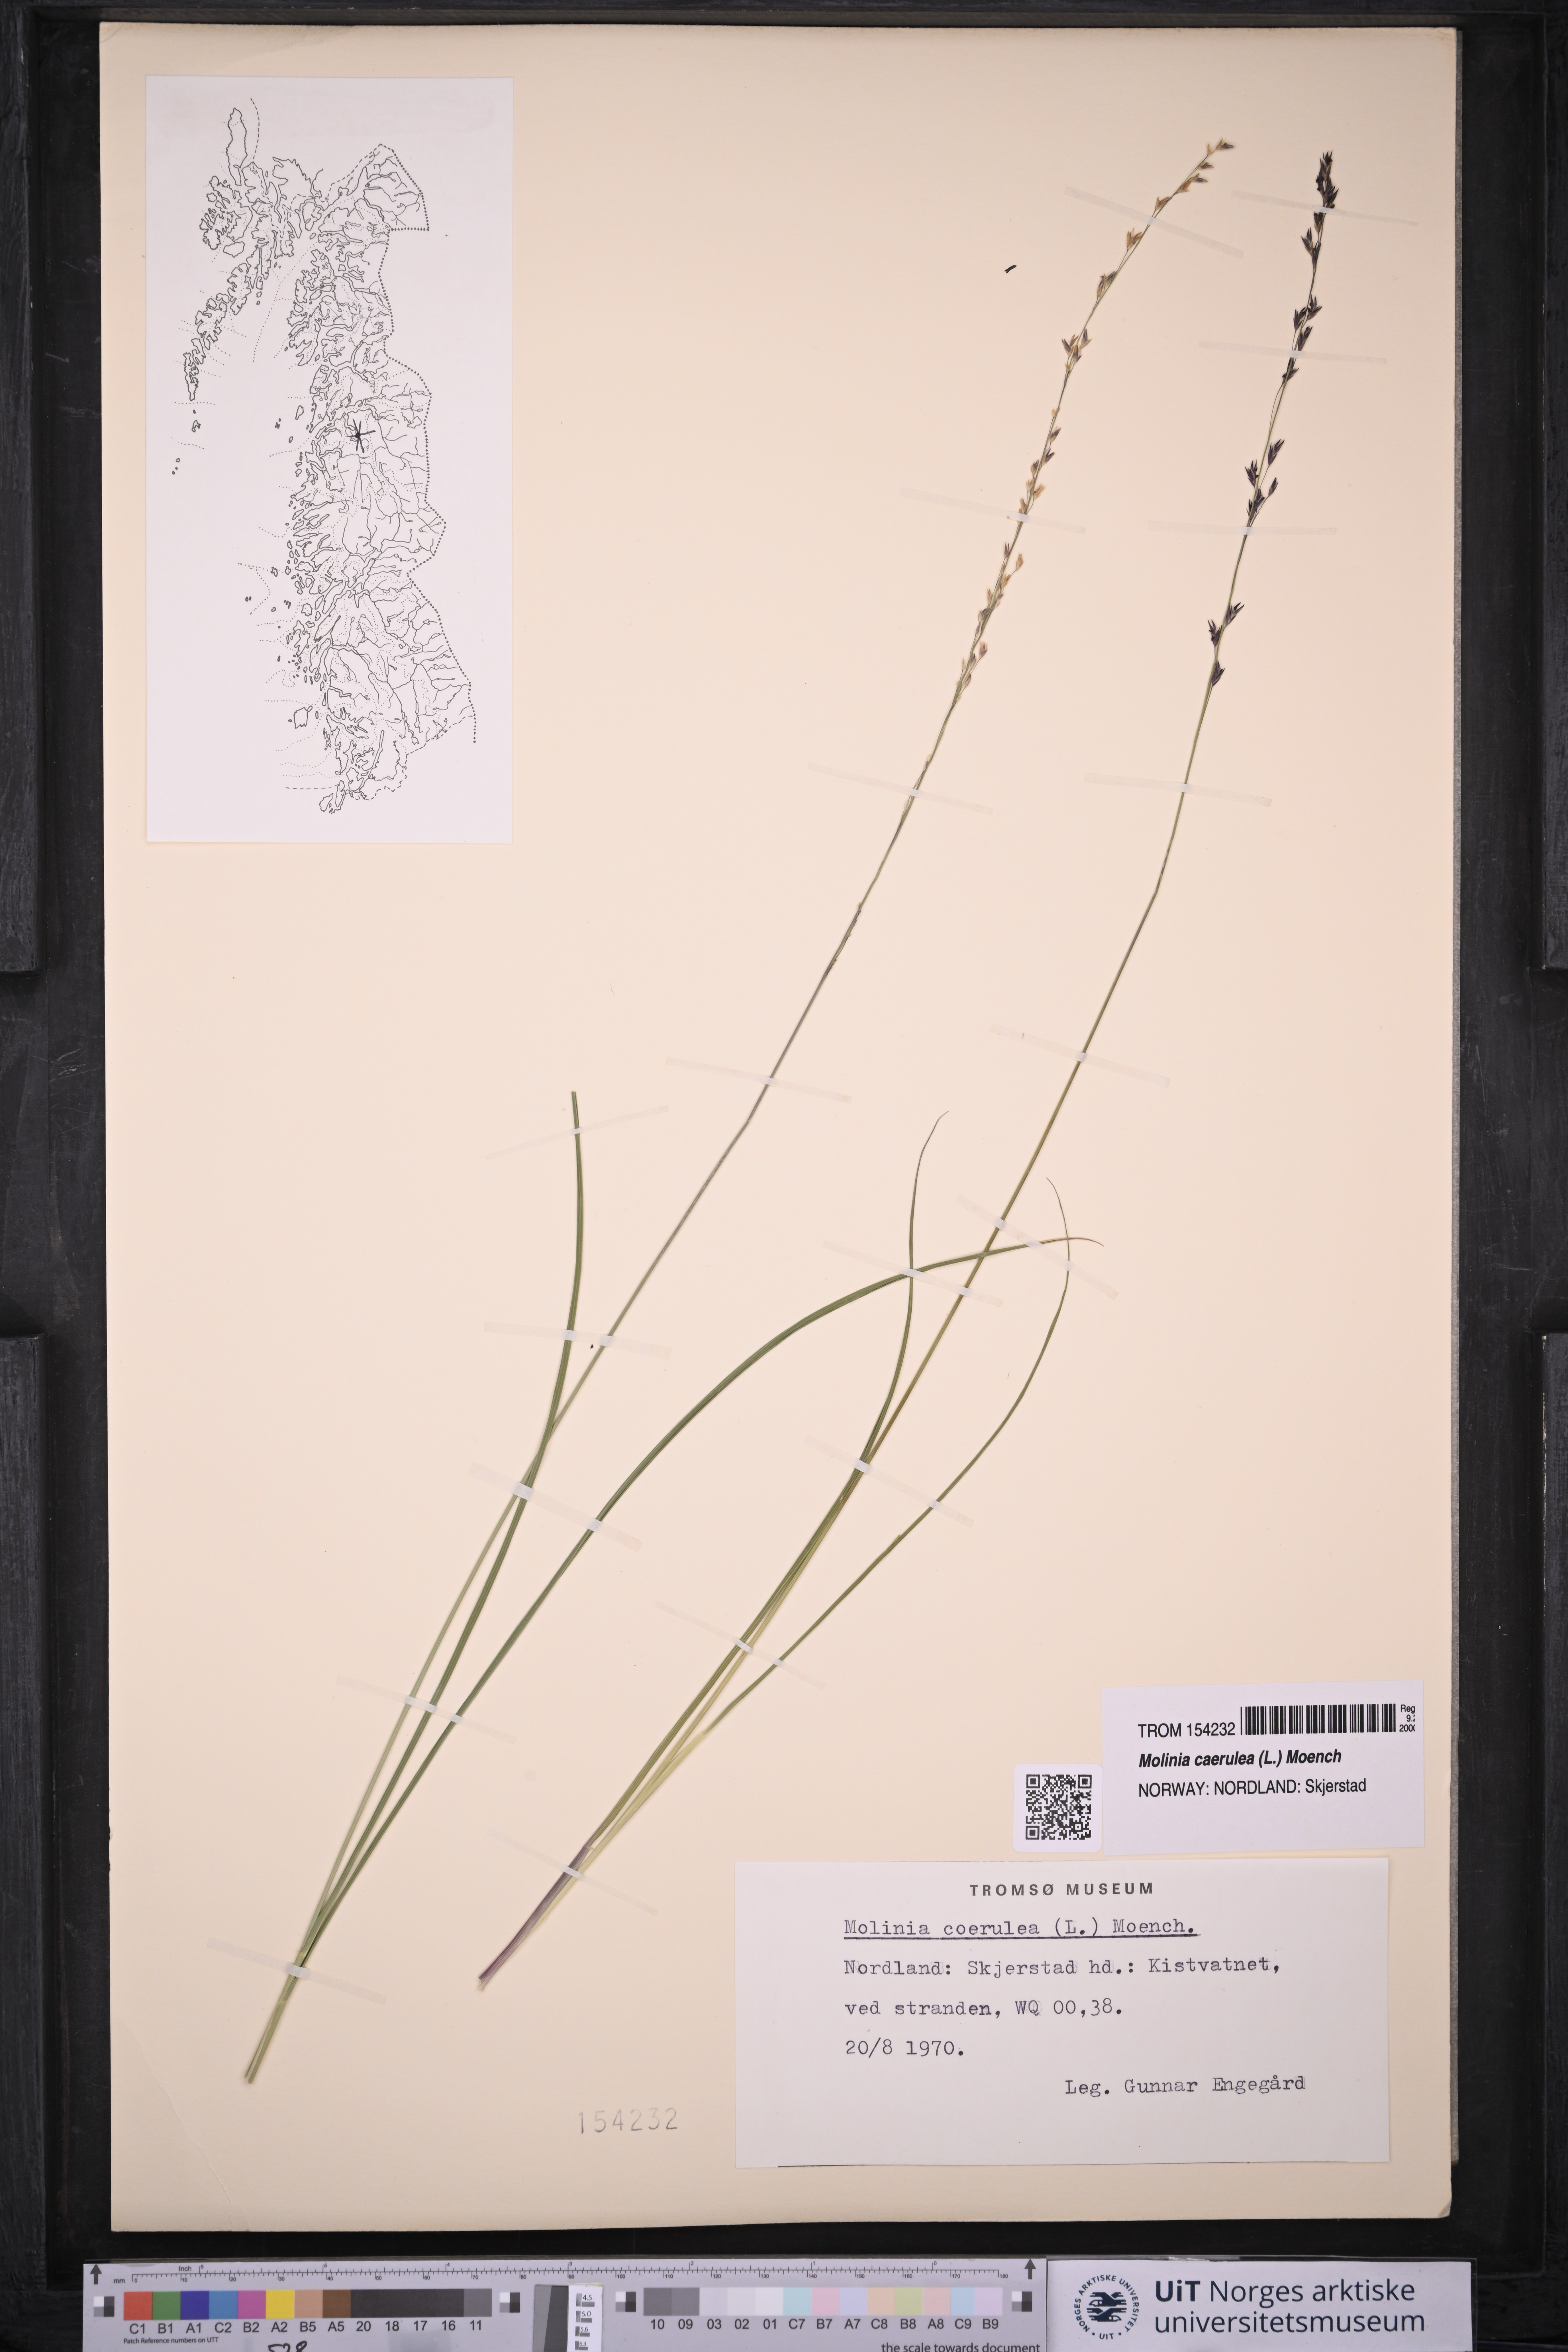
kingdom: Plantae
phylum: Tracheophyta
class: Liliopsida
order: Poales
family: Poaceae
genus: Molinia
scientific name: Molinia caerulea
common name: Purple moor-grass
